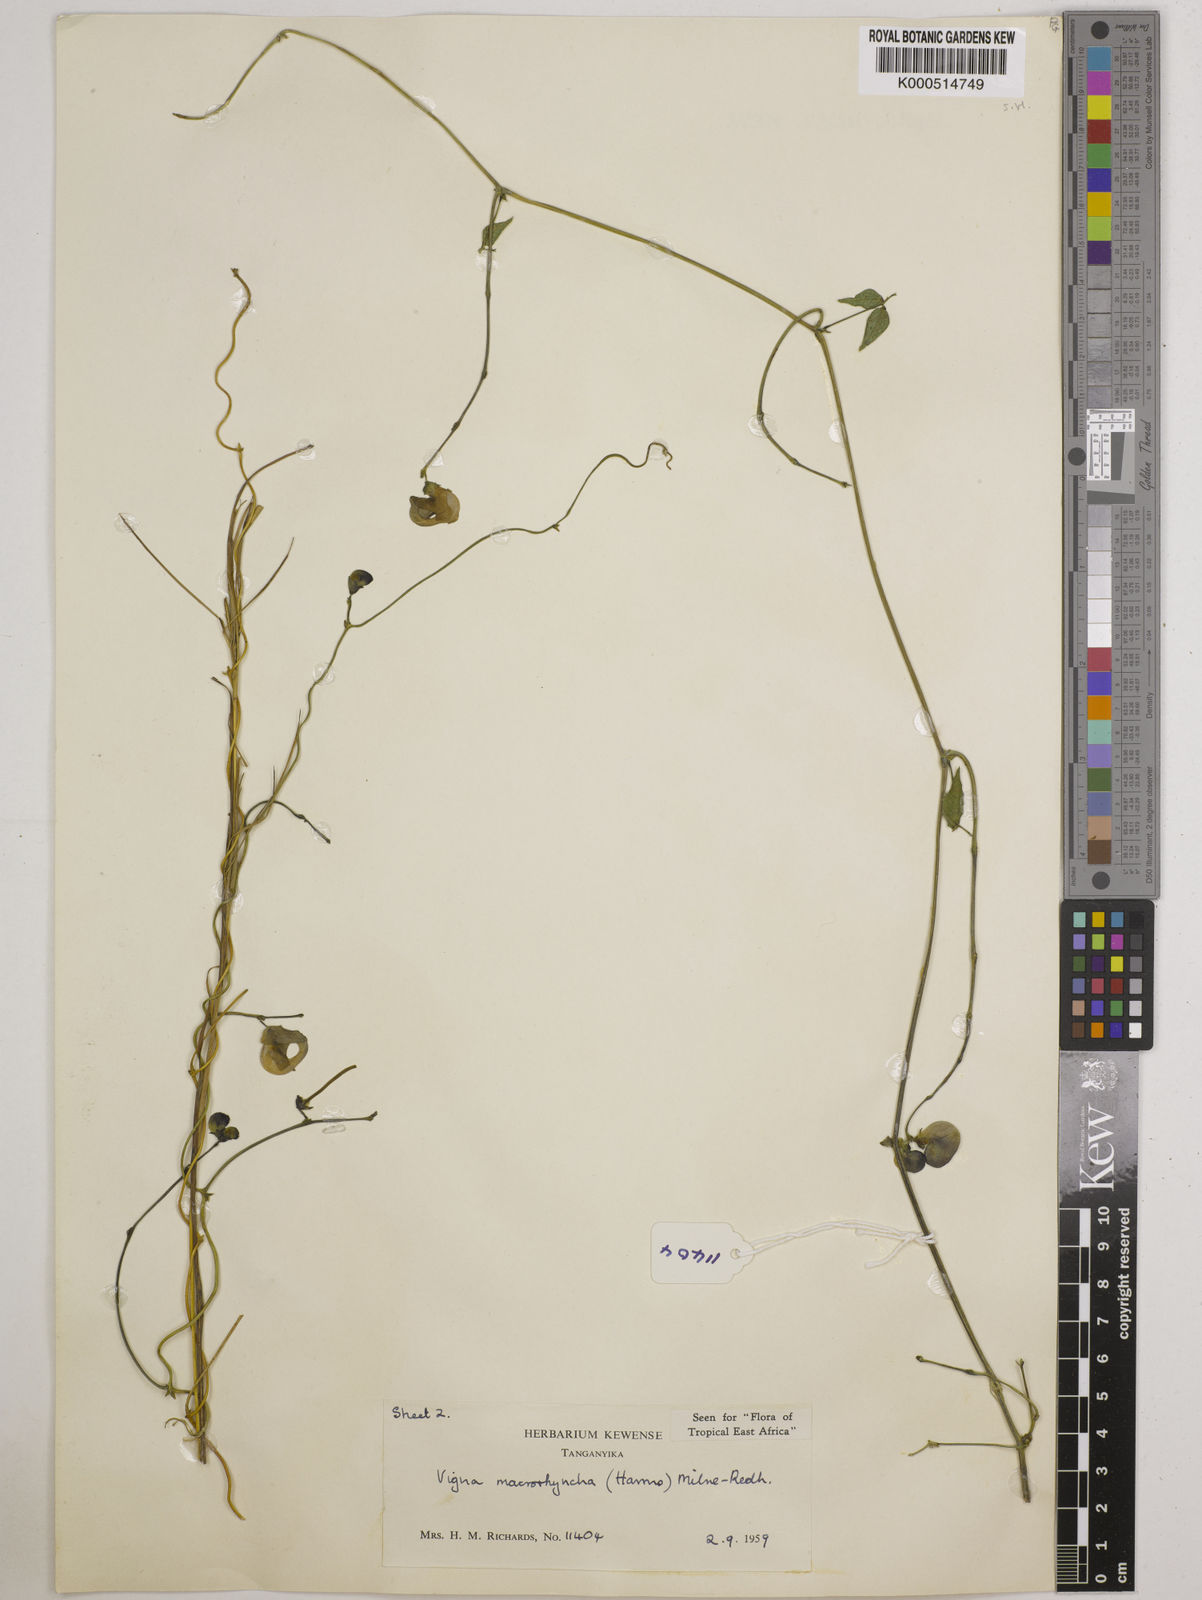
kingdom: Plantae
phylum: Tracheophyta
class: Magnoliopsida
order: Fabales
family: Fabaceae
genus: Wajira
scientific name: Wajira grahamiana
